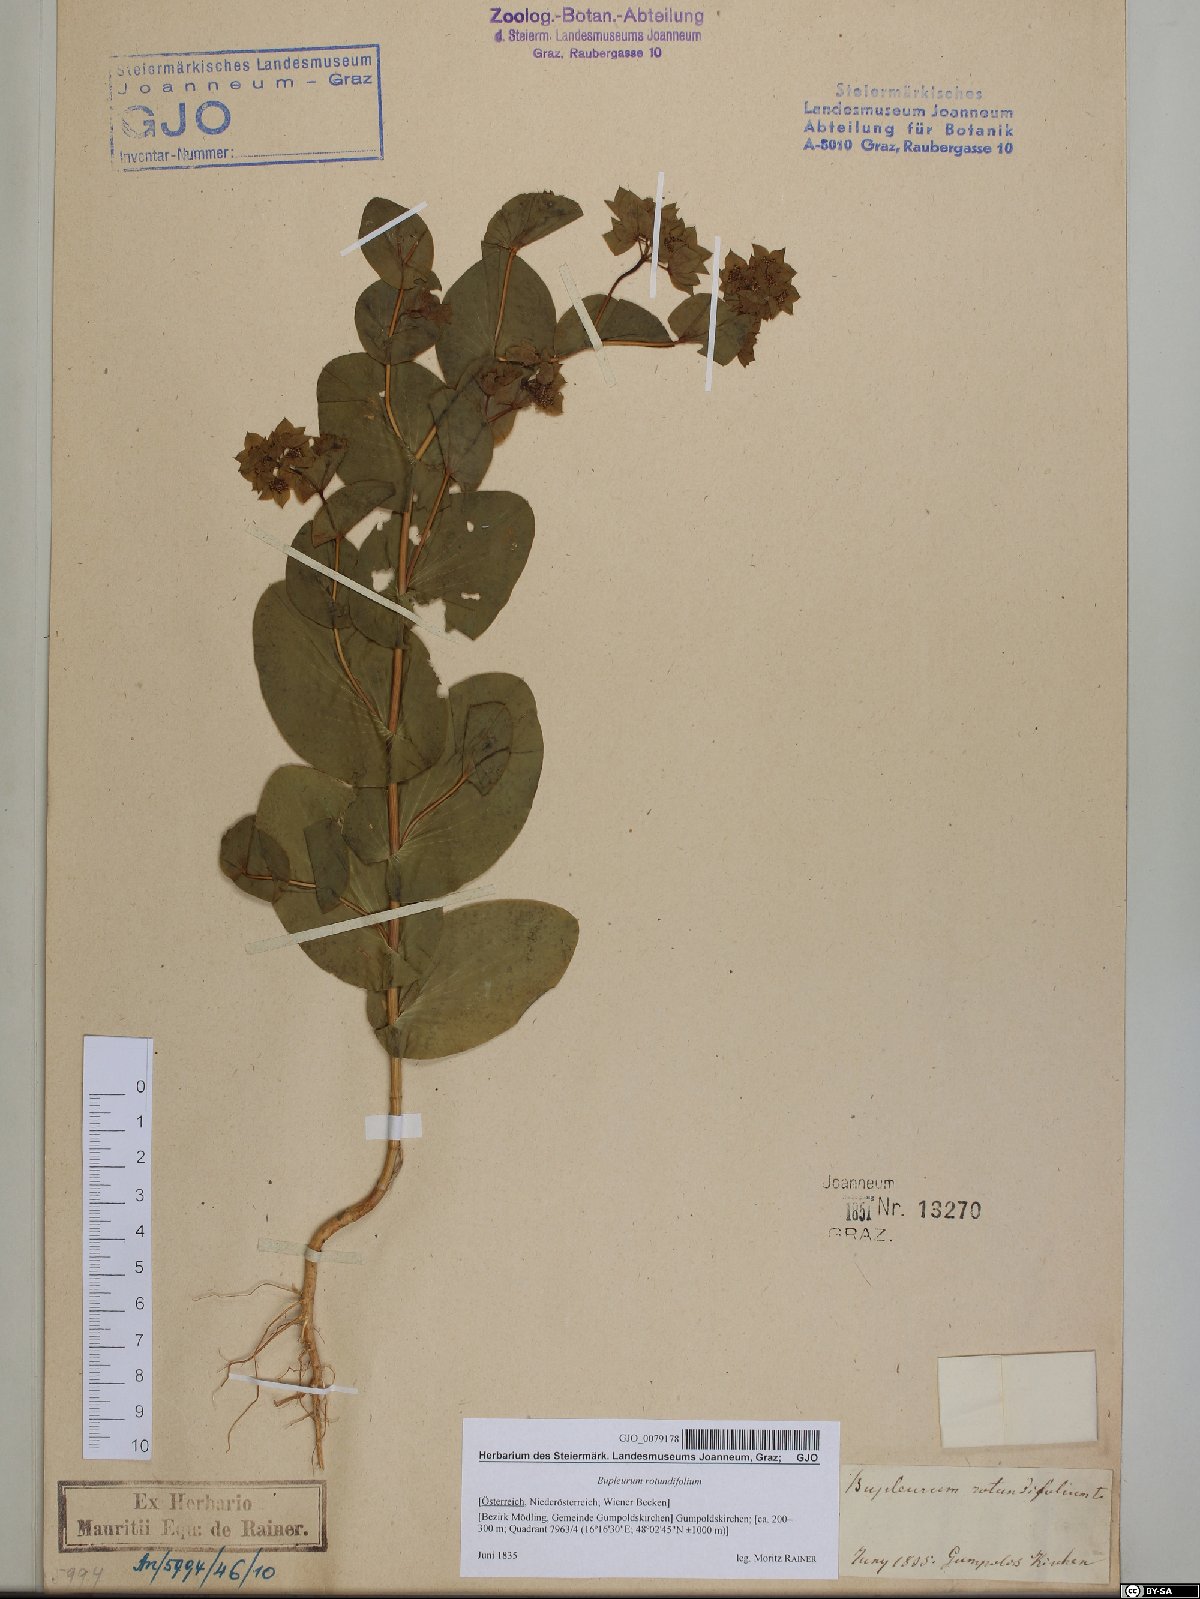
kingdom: Plantae
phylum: Tracheophyta
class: Magnoliopsida
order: Apiales
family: Apiaceae
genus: Bupleurum
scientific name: Bupleurum rotundifolium
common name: Thorow-wax
